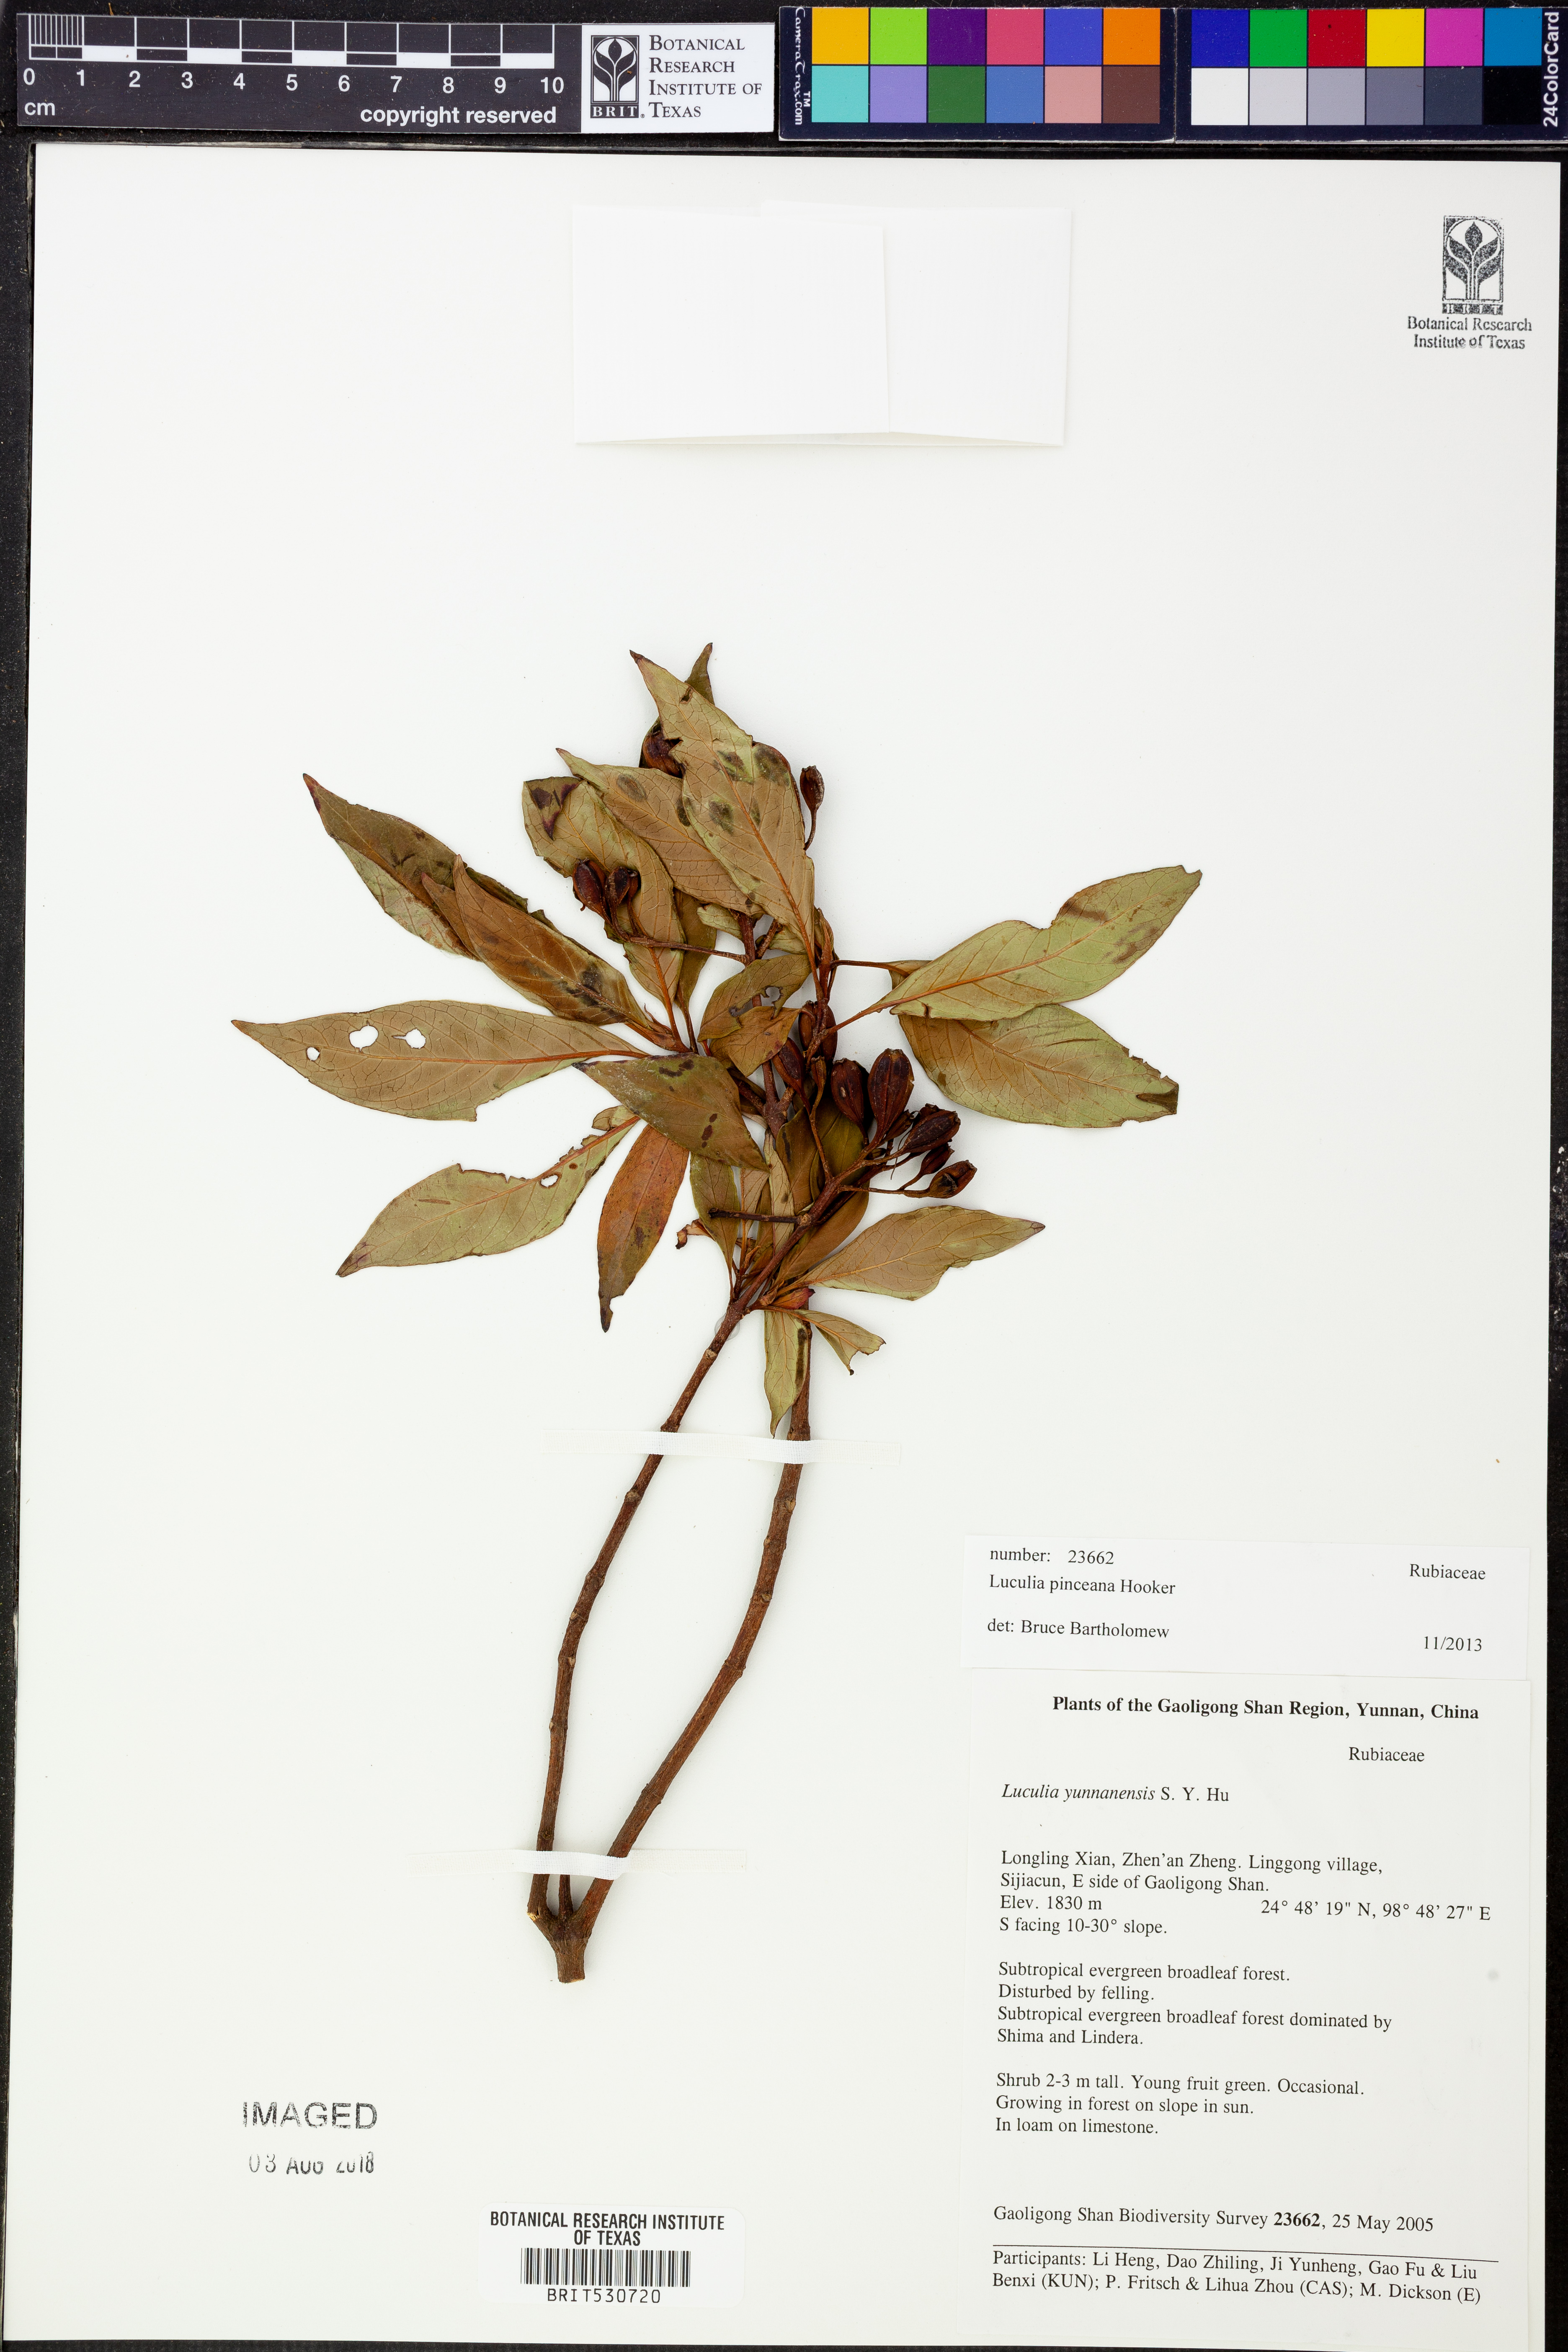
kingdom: Plantae
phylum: Tracheophyta
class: Magnoliopsida
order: Gentianales
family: Rubiaceae
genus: Luculia
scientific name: Luculia pinceana
